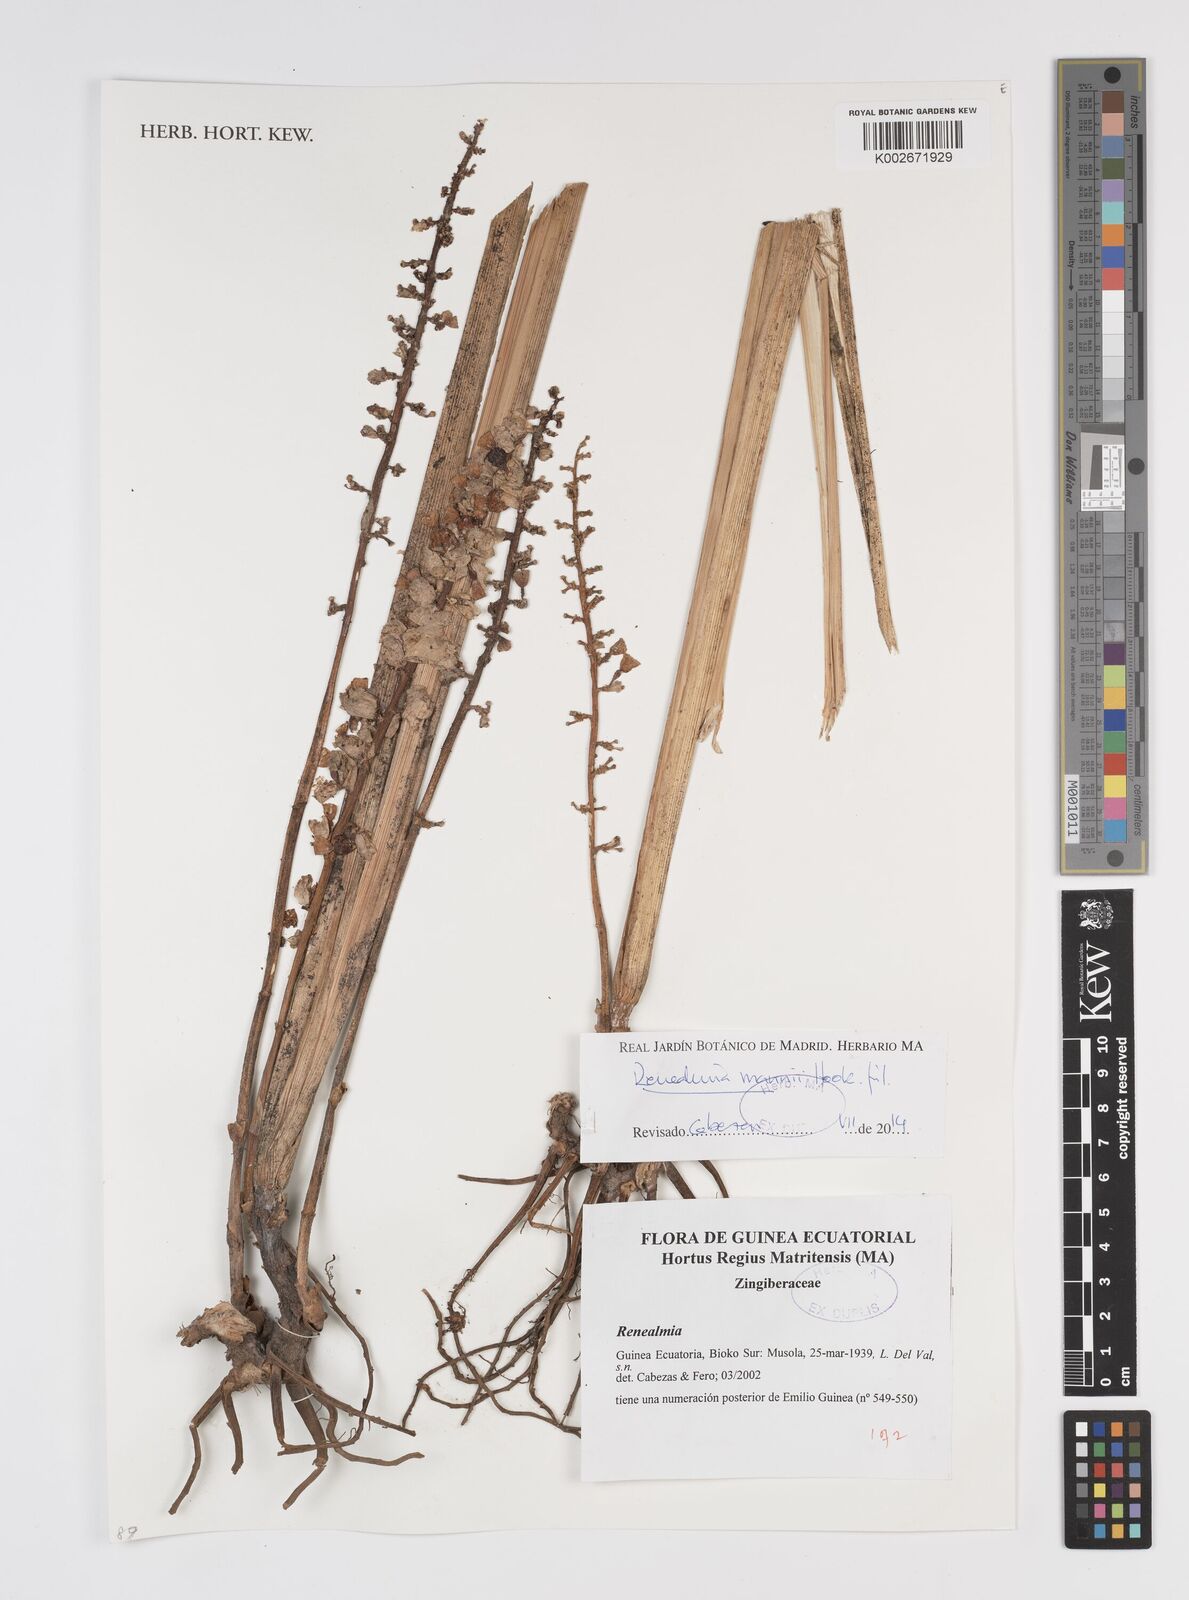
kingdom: Plantae
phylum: Tracheophyta
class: Liliopsida
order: Zingiberales
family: Zingiberaceae
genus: Renealmia
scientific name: Renealmia mannii
